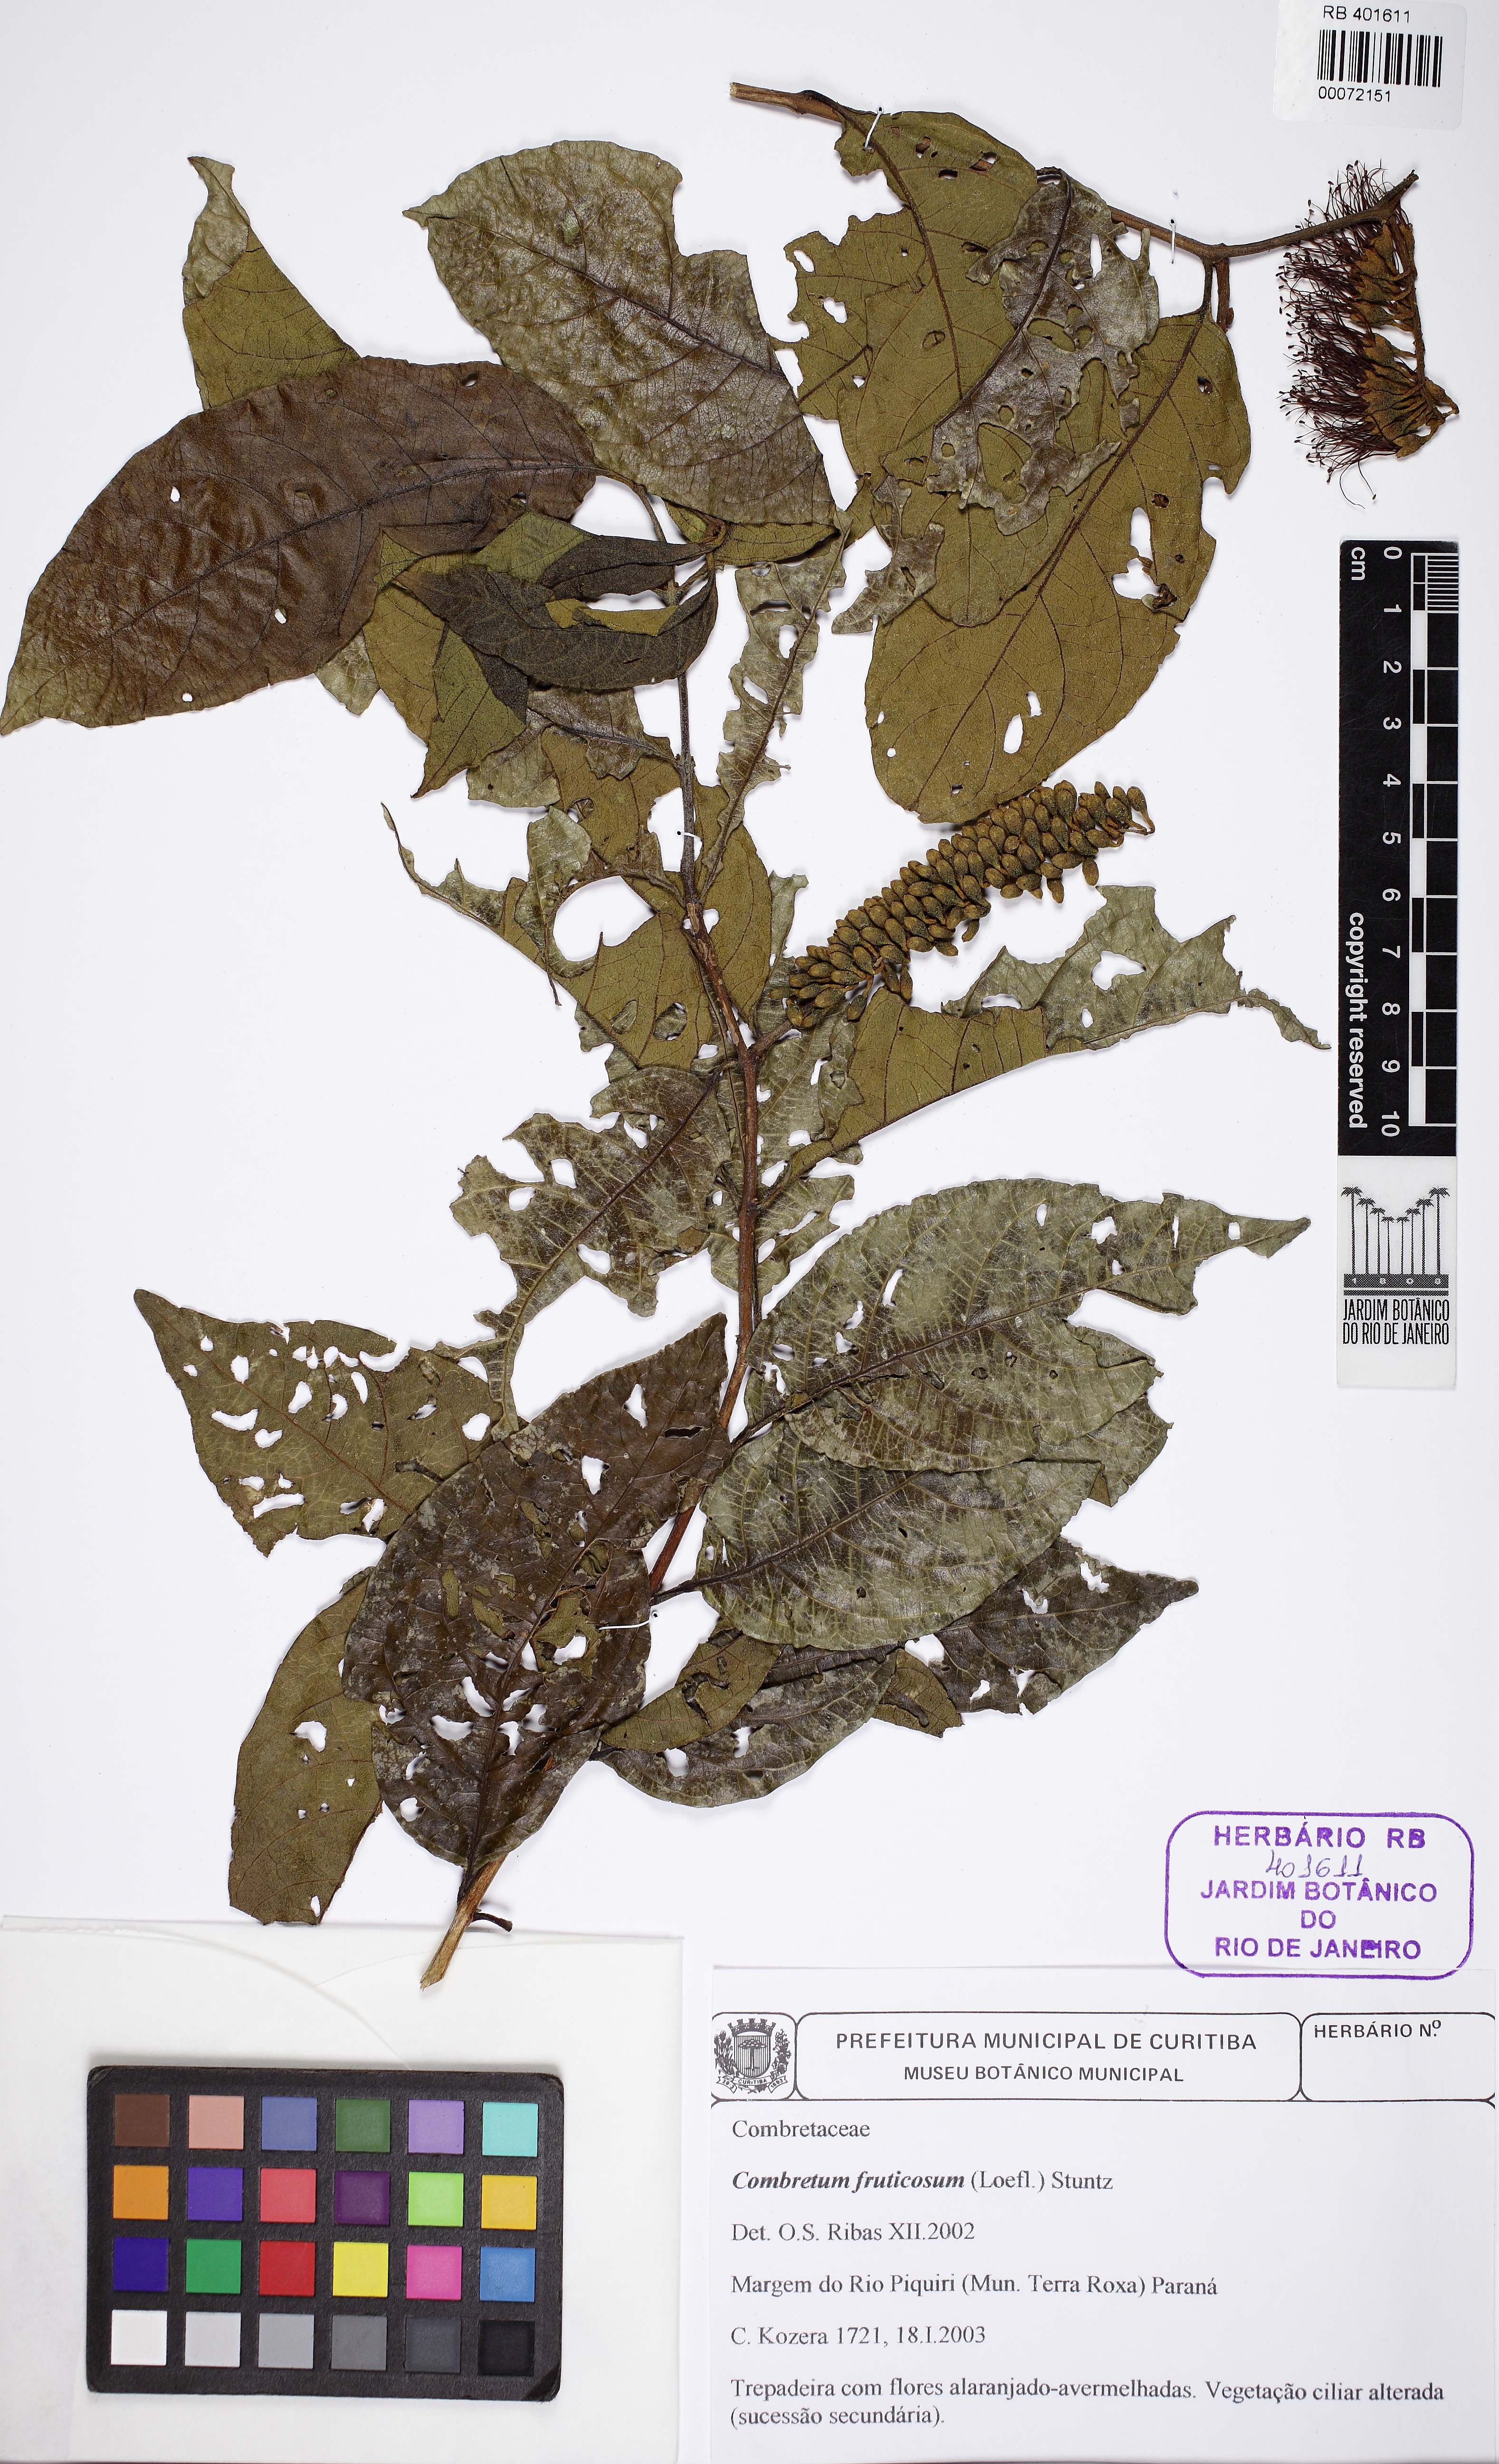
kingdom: Plantae
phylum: Tracheophyta
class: Magnoliopsida
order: Myrtales
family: Combretaceae
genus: Combretum
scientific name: Combretum fruticosum
